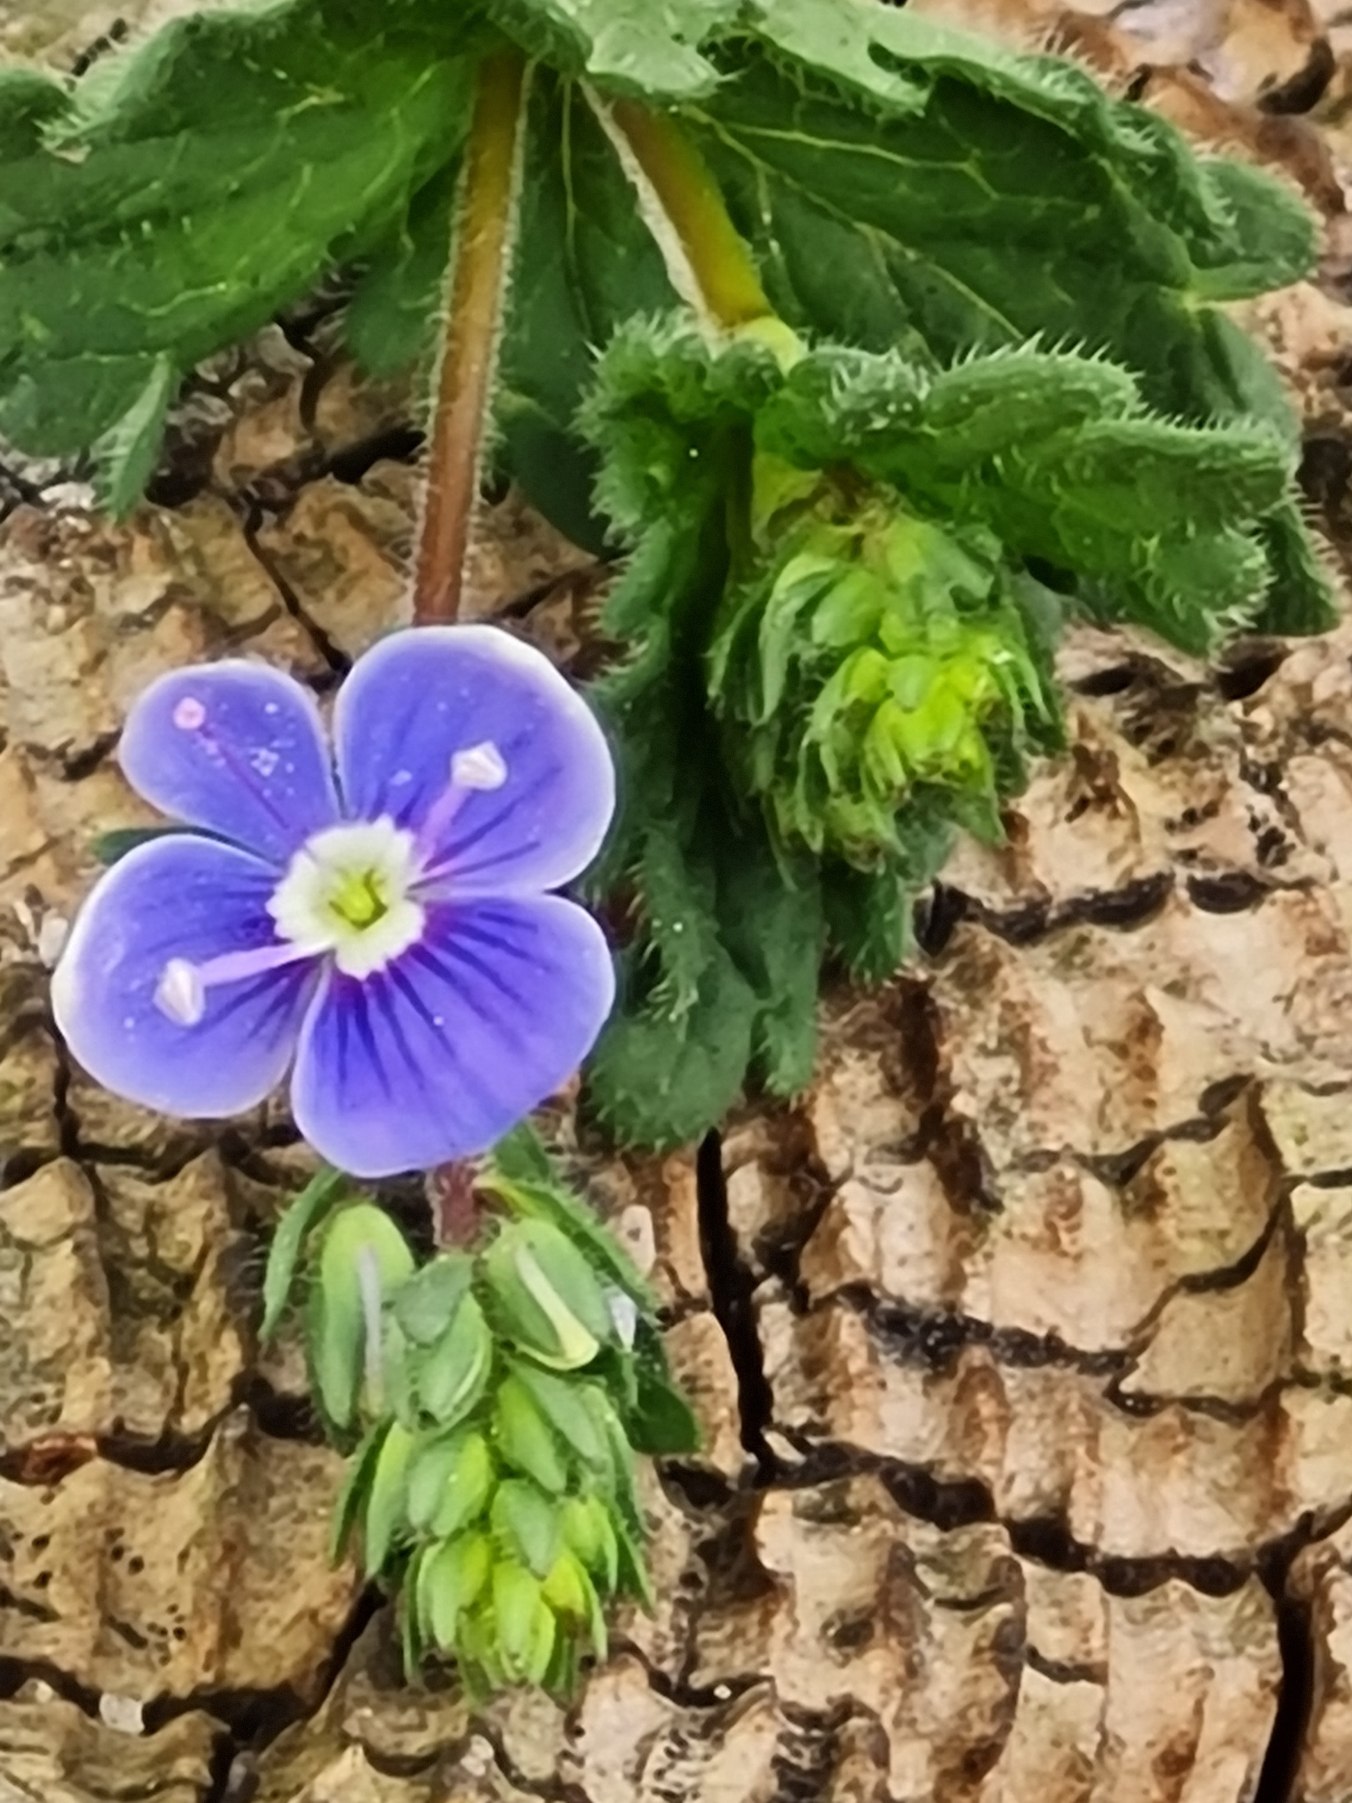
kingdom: Plantae
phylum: Tracheophyta
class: Magnoliopsida
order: Lamiales
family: Plantaginaceae
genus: Veronica
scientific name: Veronica chamaedrys
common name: Tveskægget ærenpris
